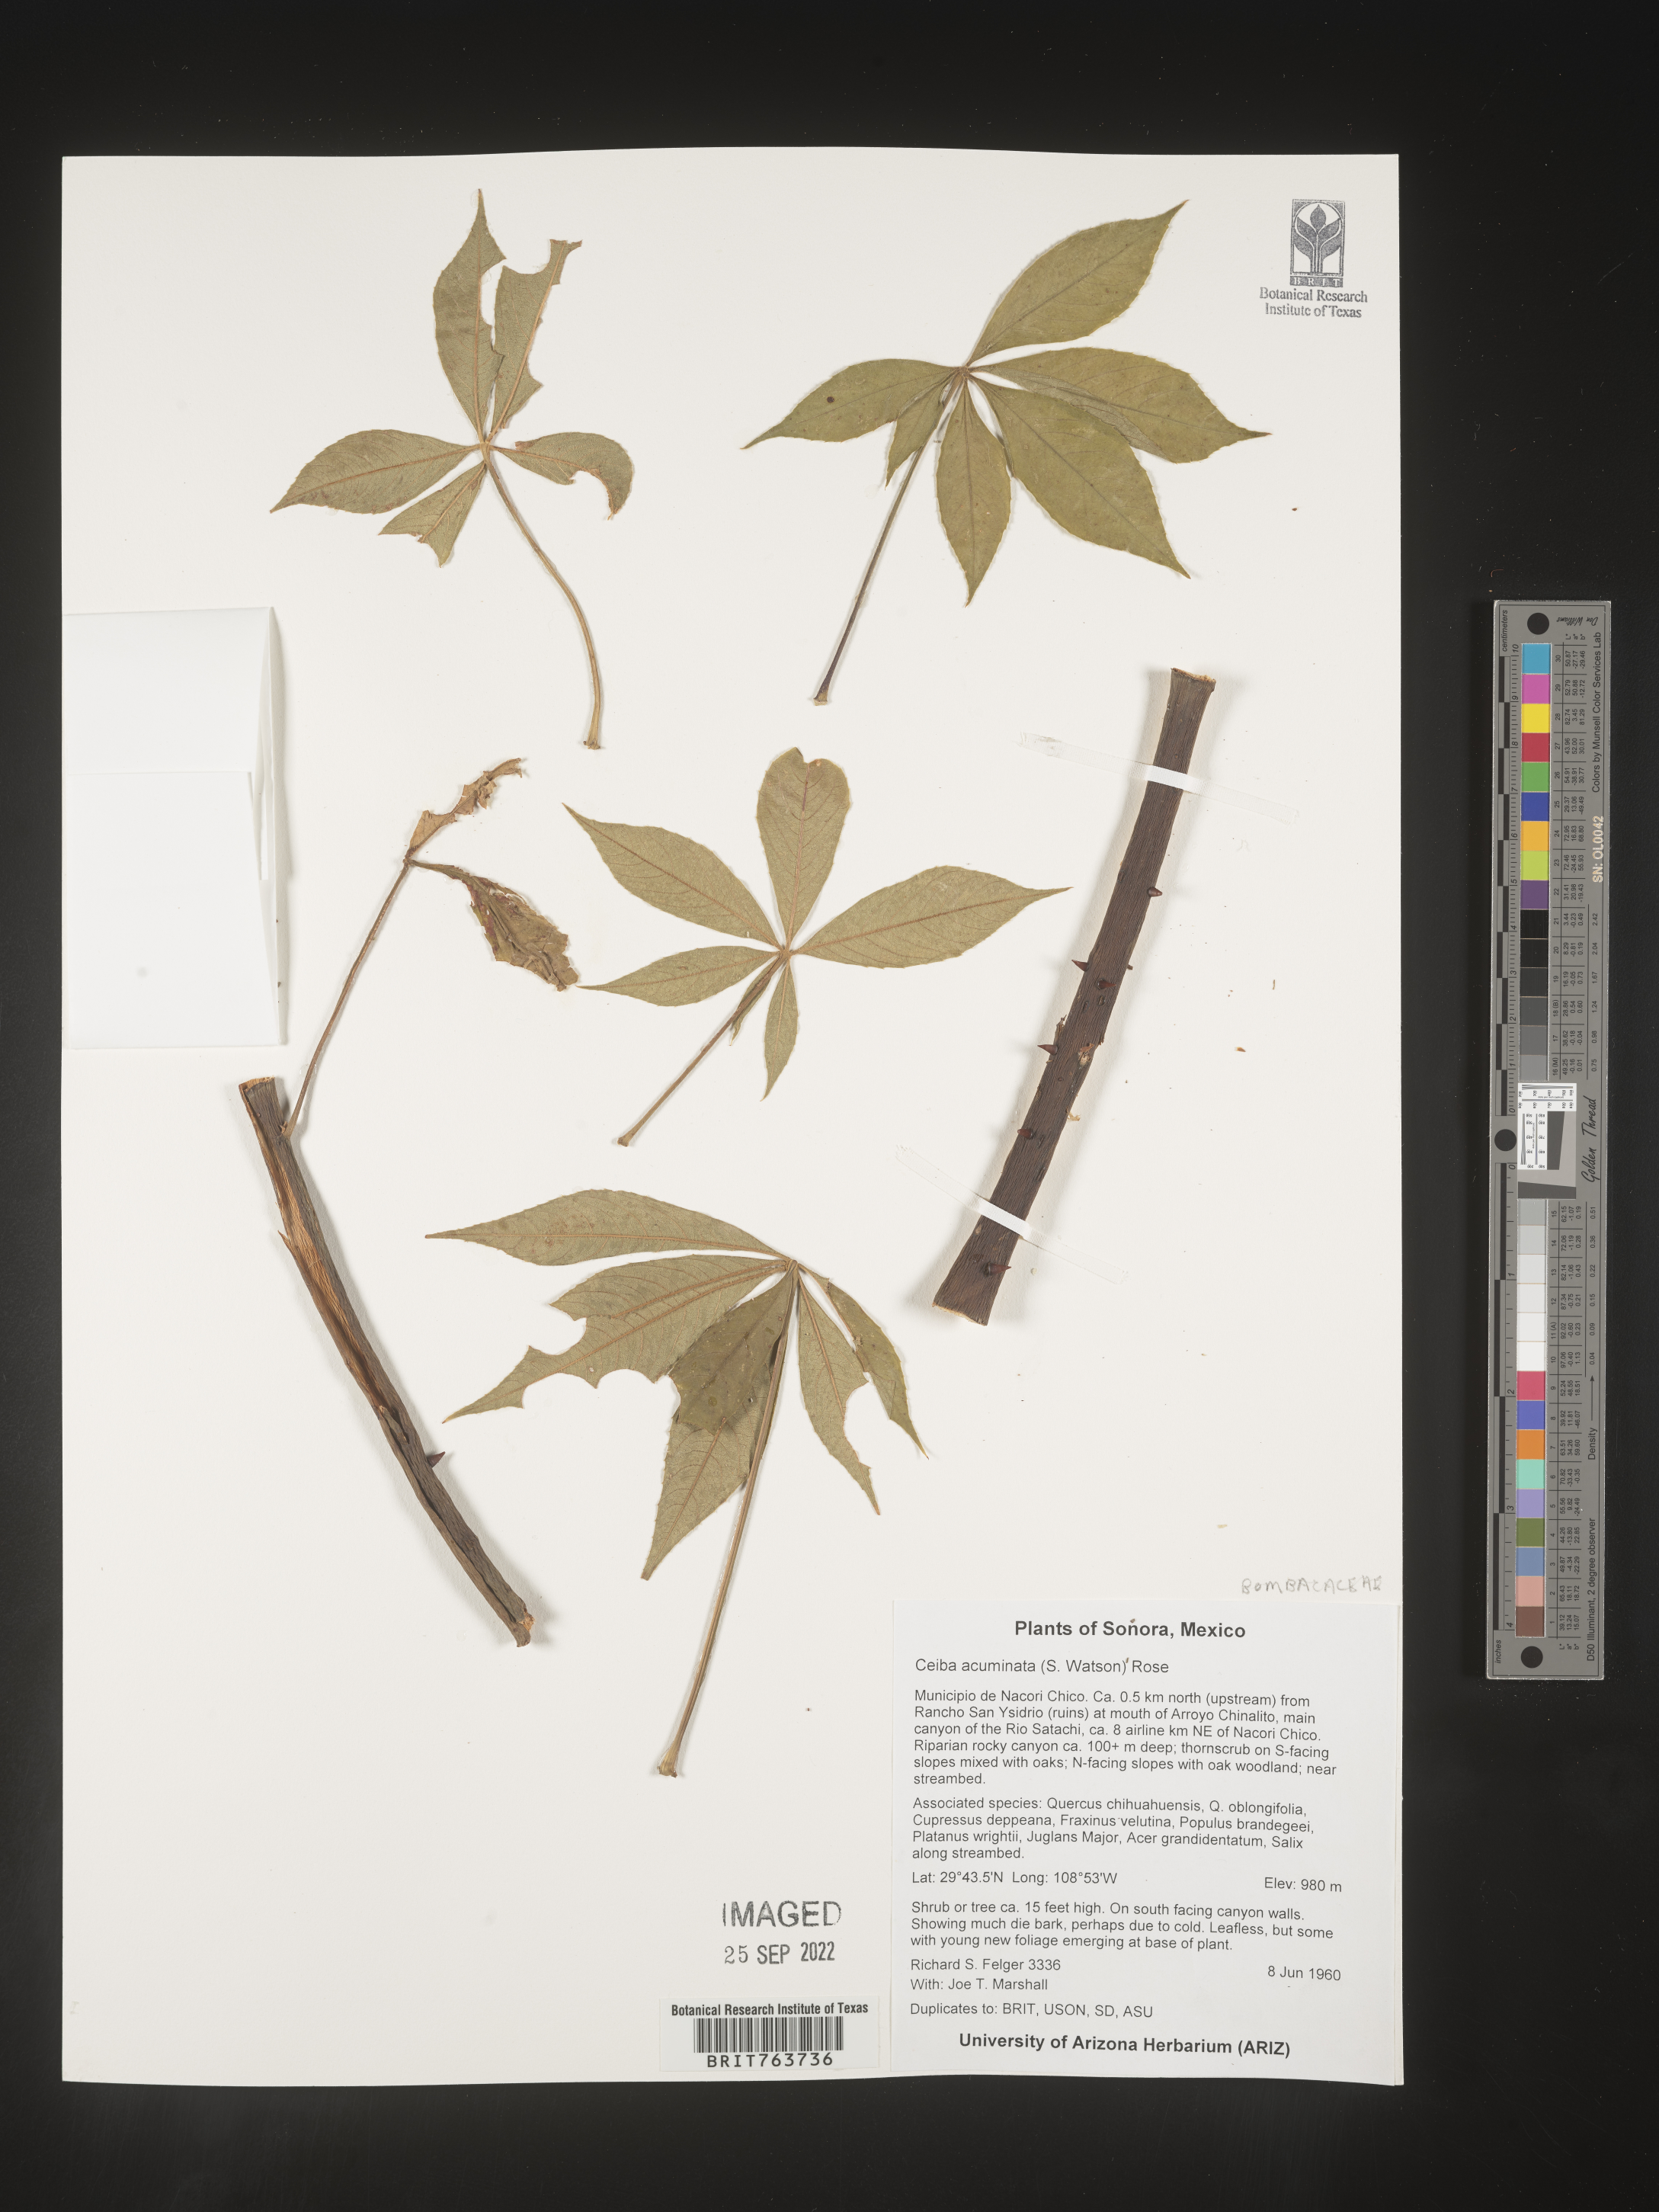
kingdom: Plantae
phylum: Tracheophyta
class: Magnoliopsida
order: Malvales
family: Malvaceae
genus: Ceiba
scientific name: Ceiba
